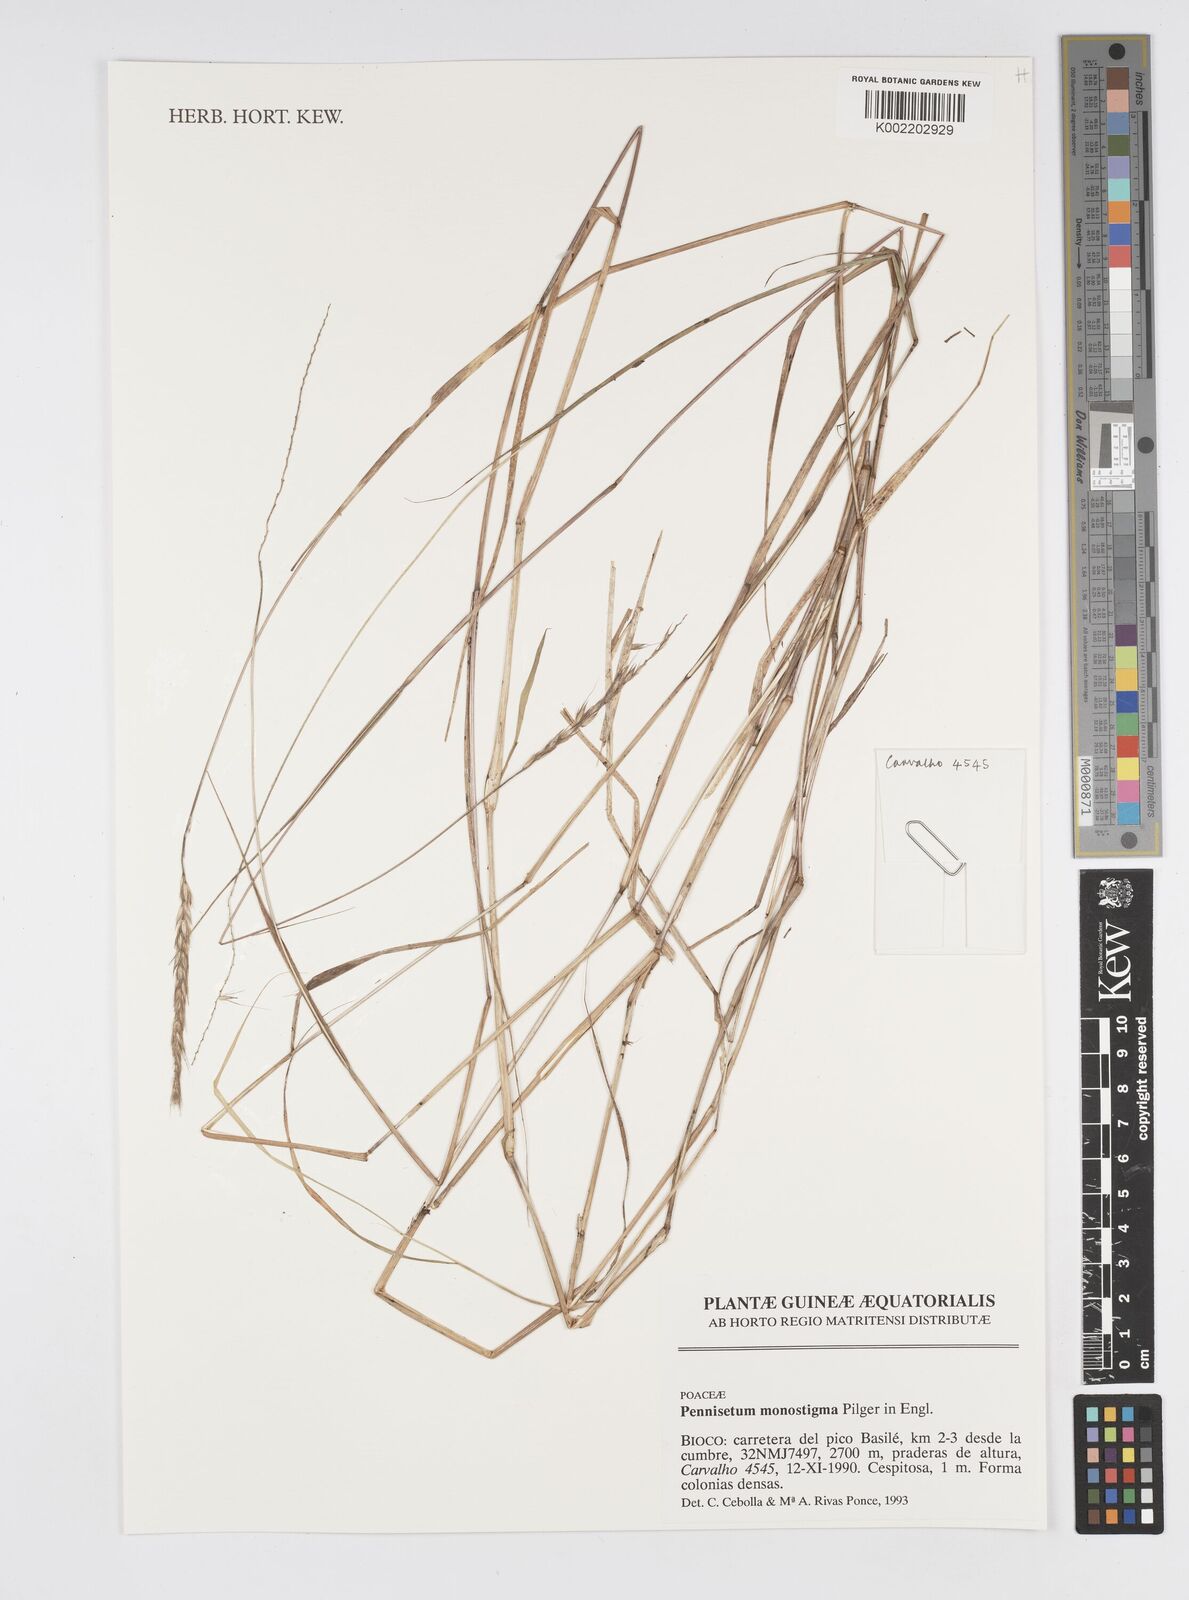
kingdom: Plantae
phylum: Tracheophyta
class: Liliopsida
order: Poales
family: Poaceae
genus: Cenchrus
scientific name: Cenchrus monostigma
